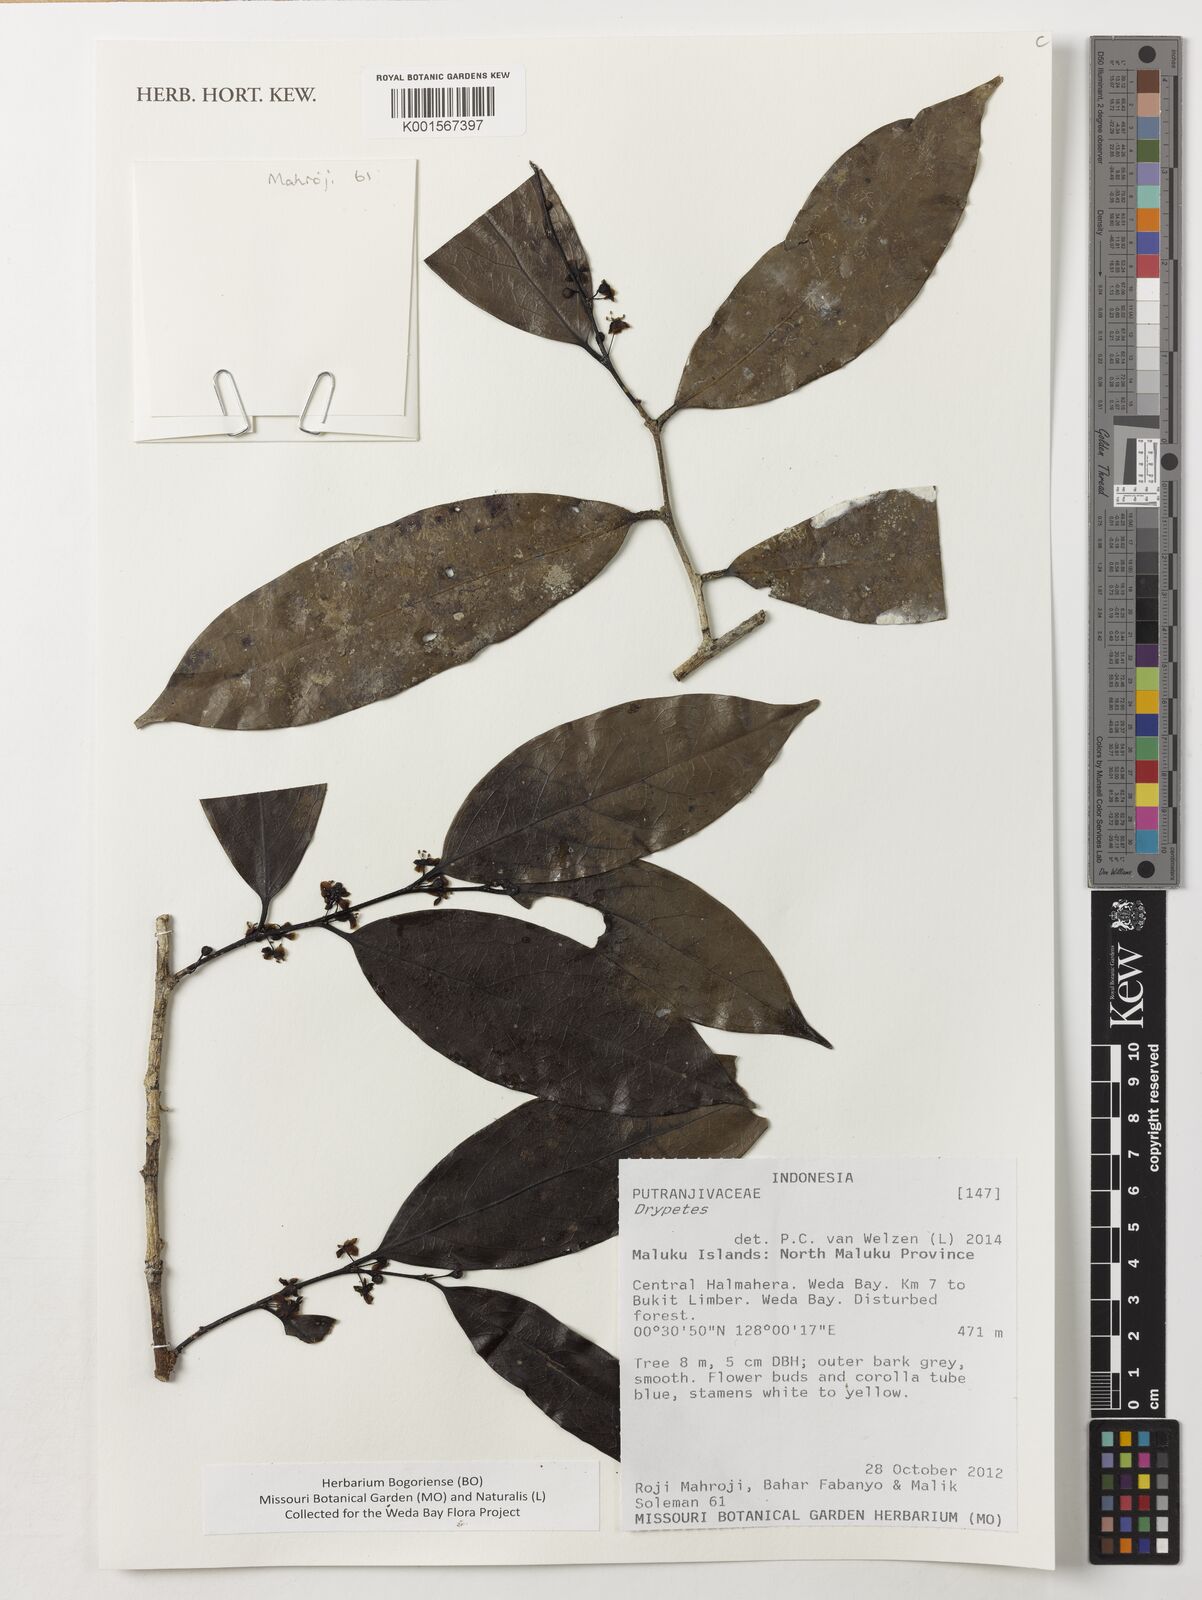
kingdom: Plantae
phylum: Tracheophyta
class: Magnoliopsida
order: Malpighiales
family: Putranjivaceae
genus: Drypetes
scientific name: Drypetes
